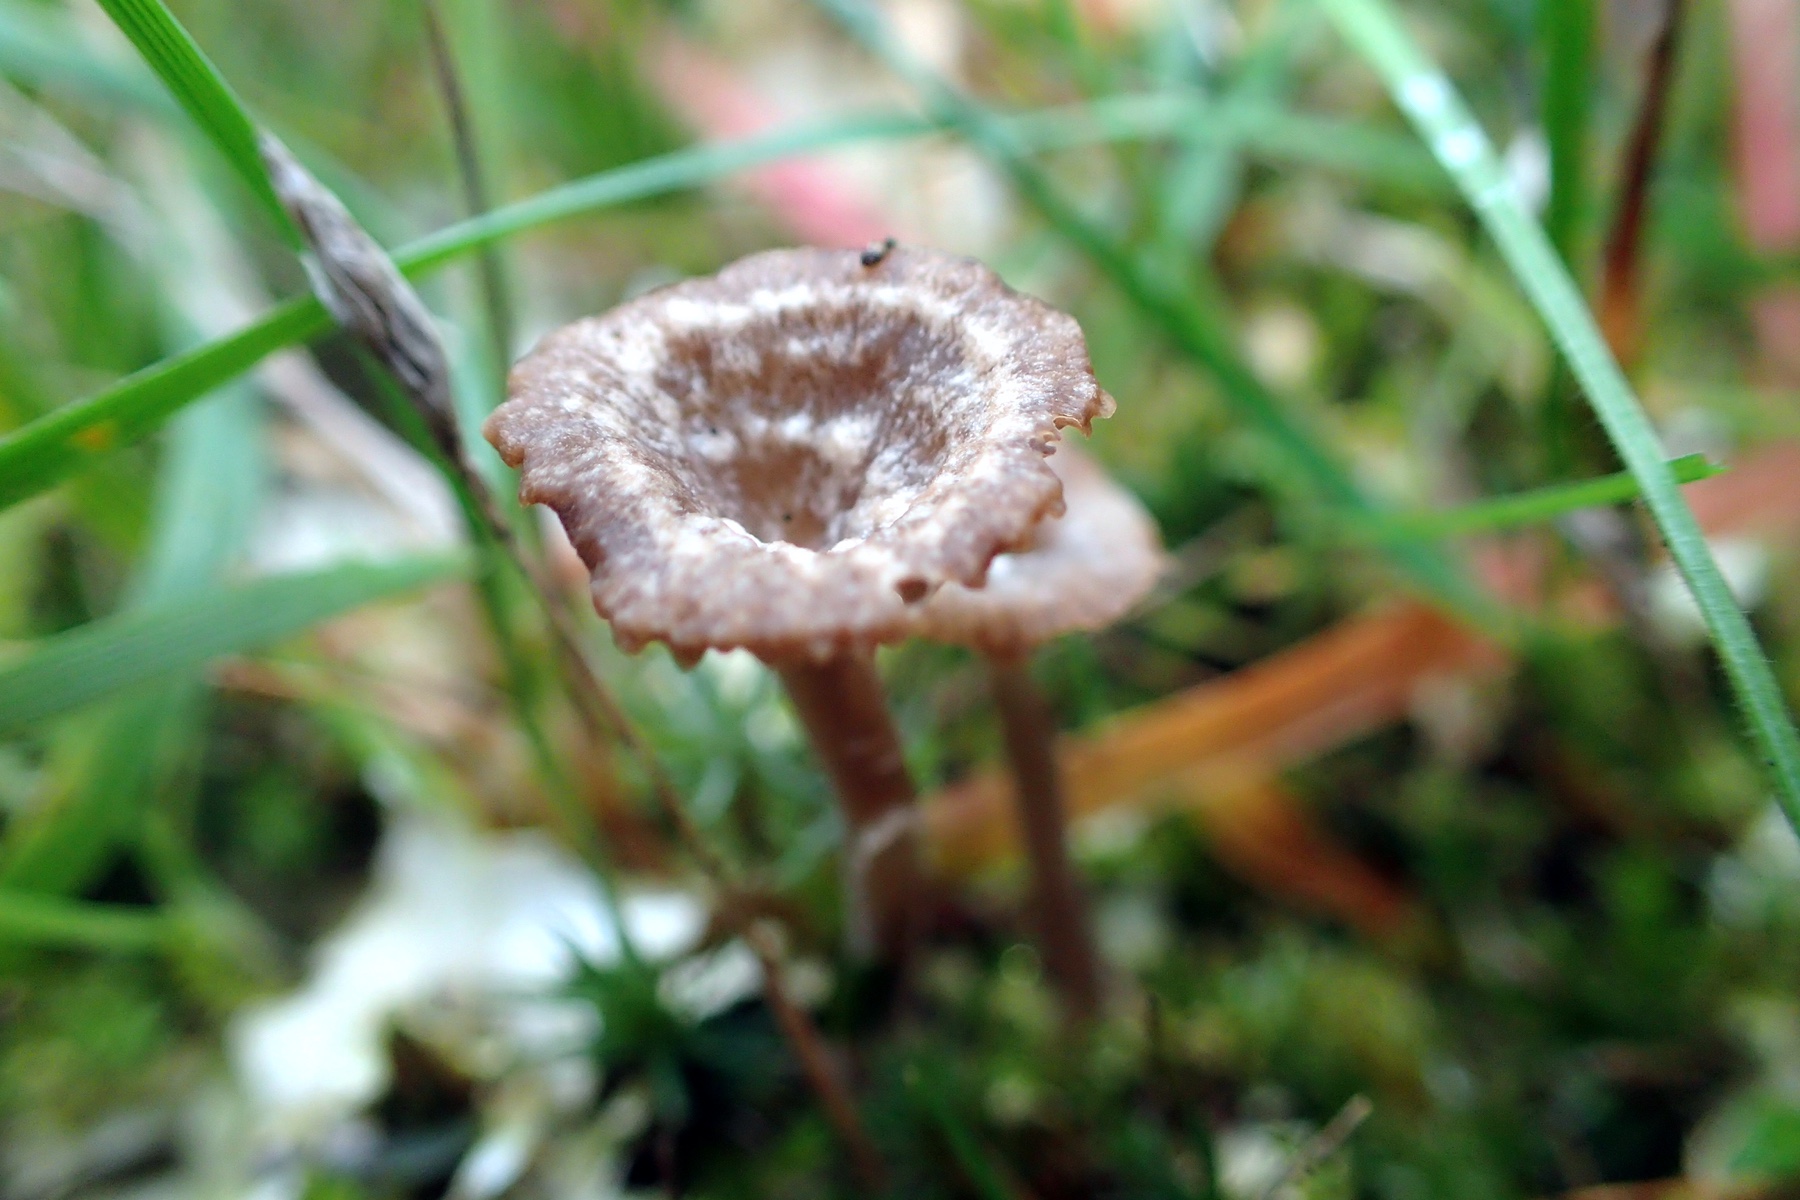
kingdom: Fungi
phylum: Basidiomycota
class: Agaricomycetes
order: Agaricales
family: Hygrophoraceae
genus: Arrhenia
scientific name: Arrhenia peltigerina
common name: skjoldlav-fontænehat
